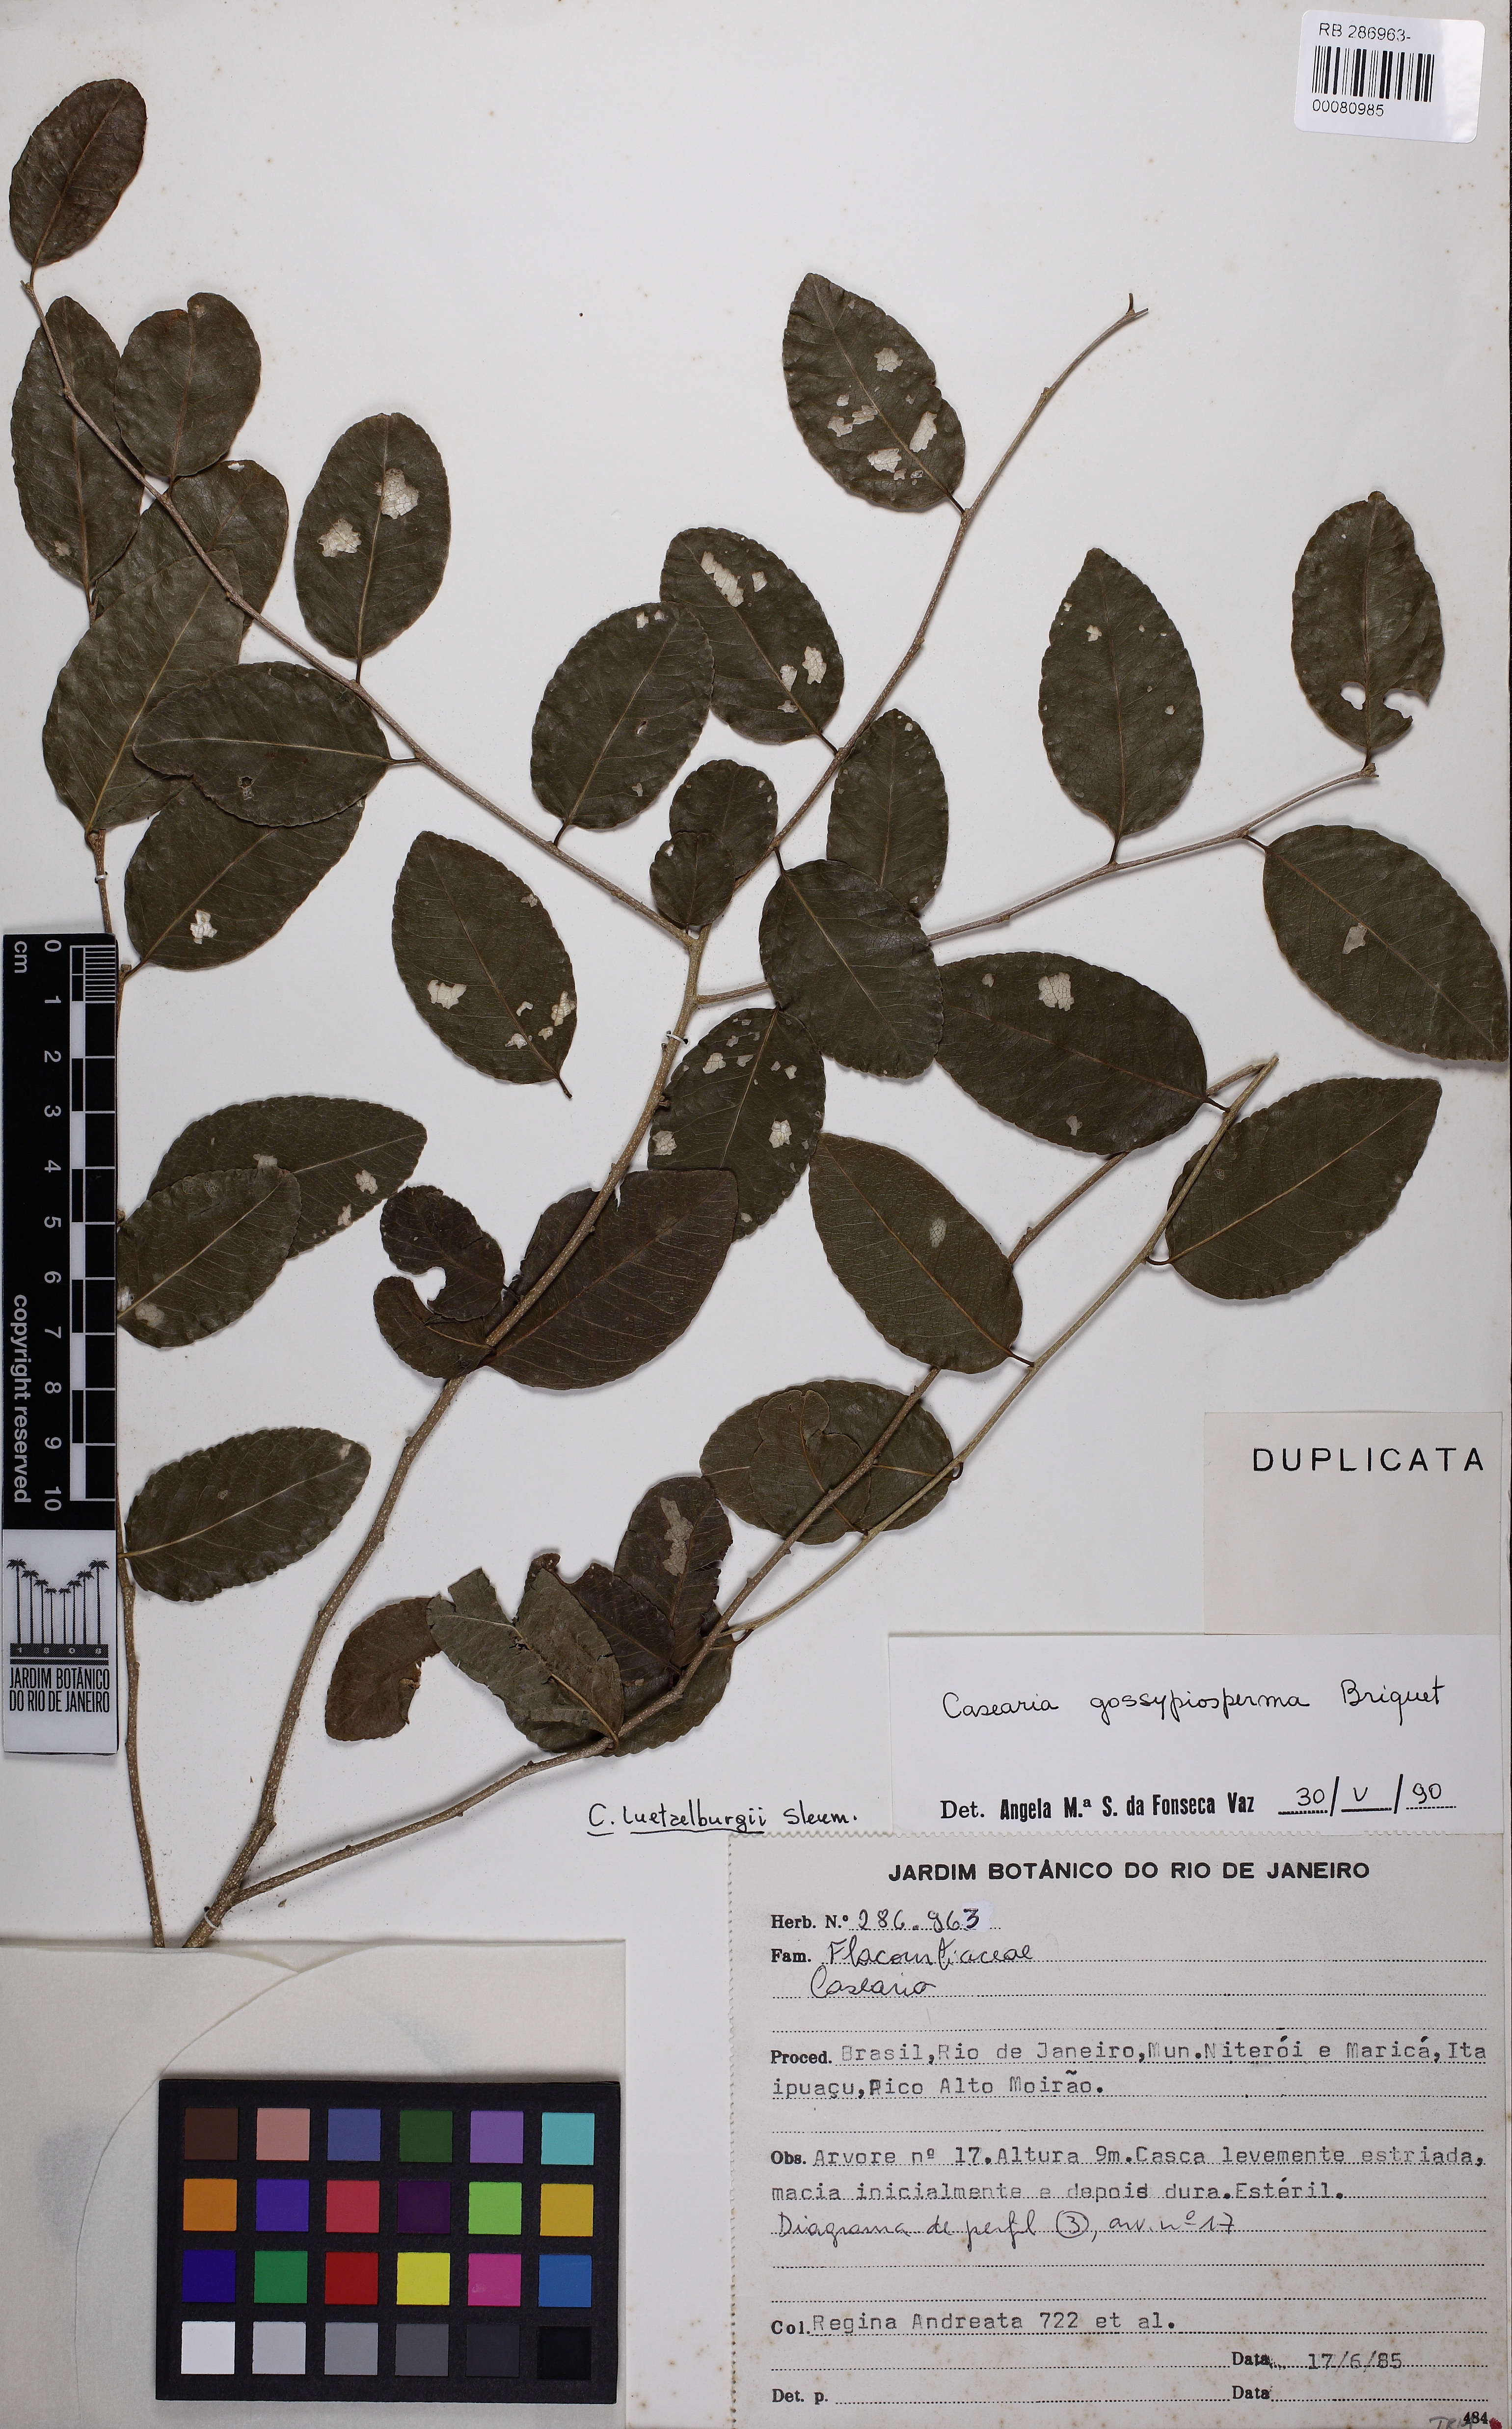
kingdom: Plantae
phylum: Tracheophyta
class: Magnoliopsida
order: Malpighiales
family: Salicaceae
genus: Casearia
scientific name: Casearia gossypiosperma
